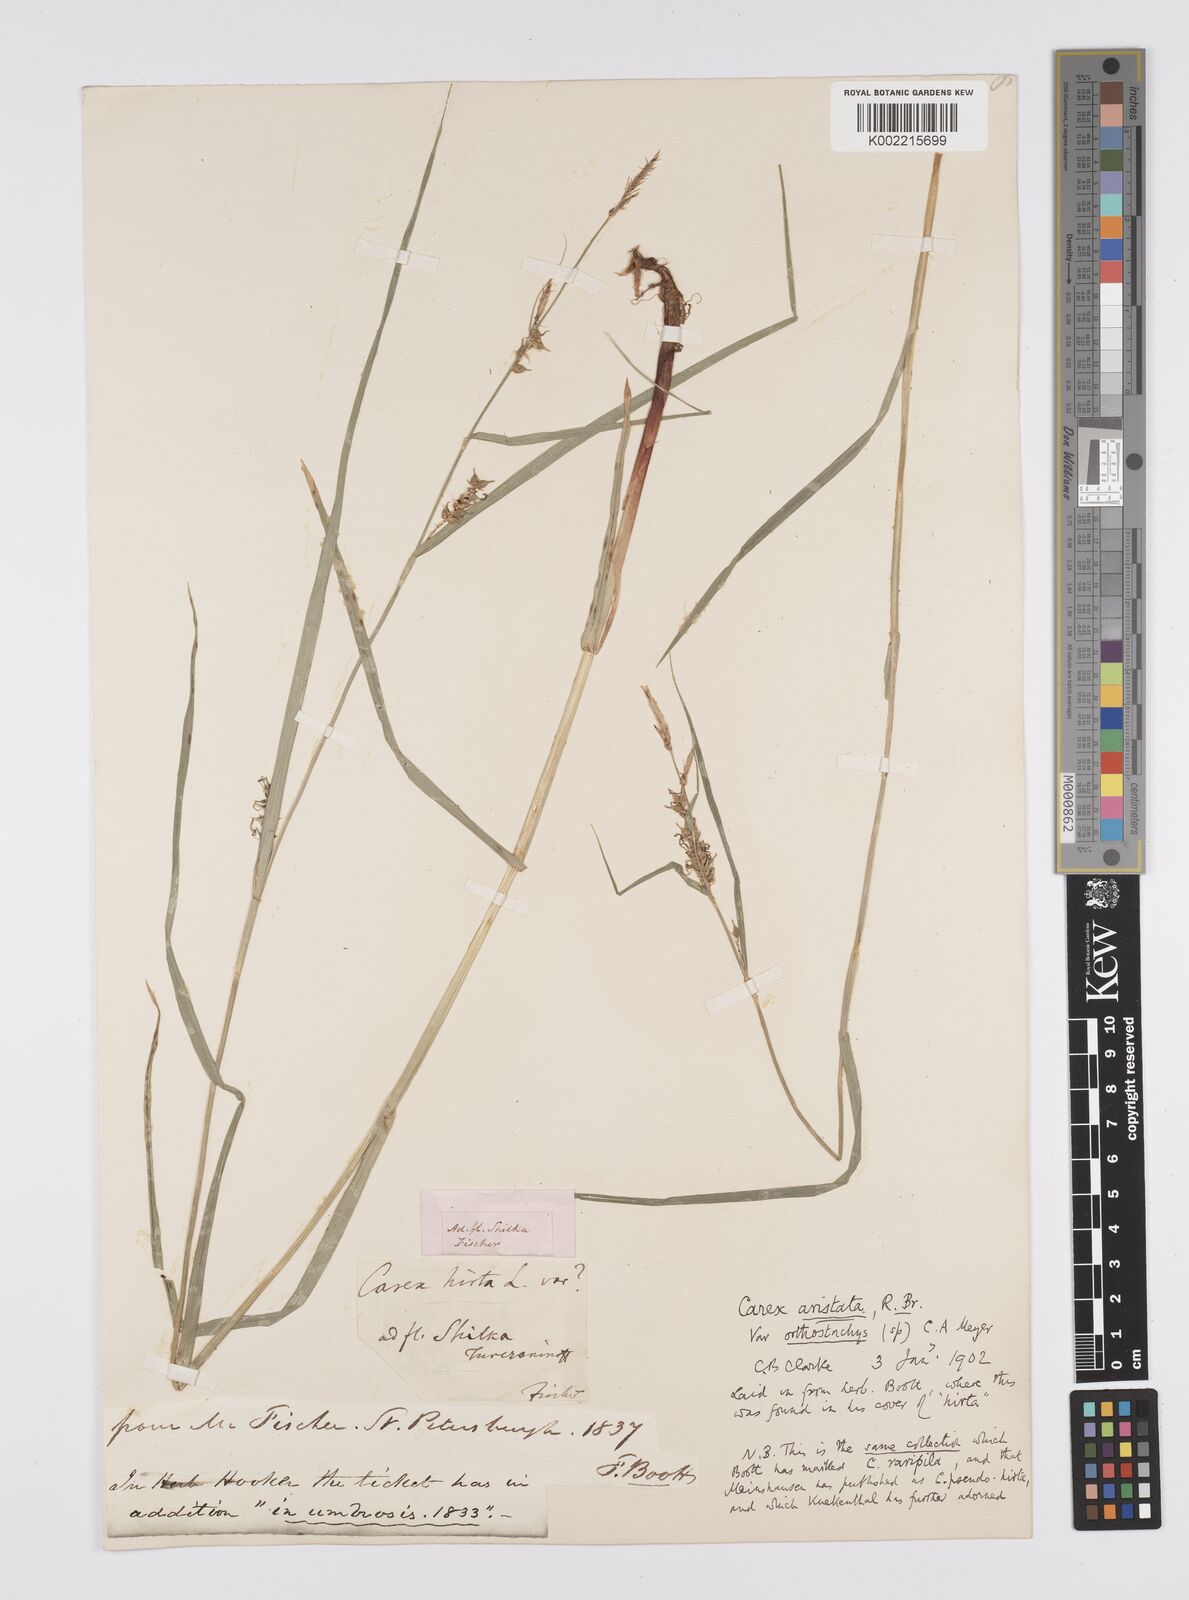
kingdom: Plantae
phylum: Tracheophyta
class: Liliopsida
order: Poales
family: Cyperaceae
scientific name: Cyperaceae
